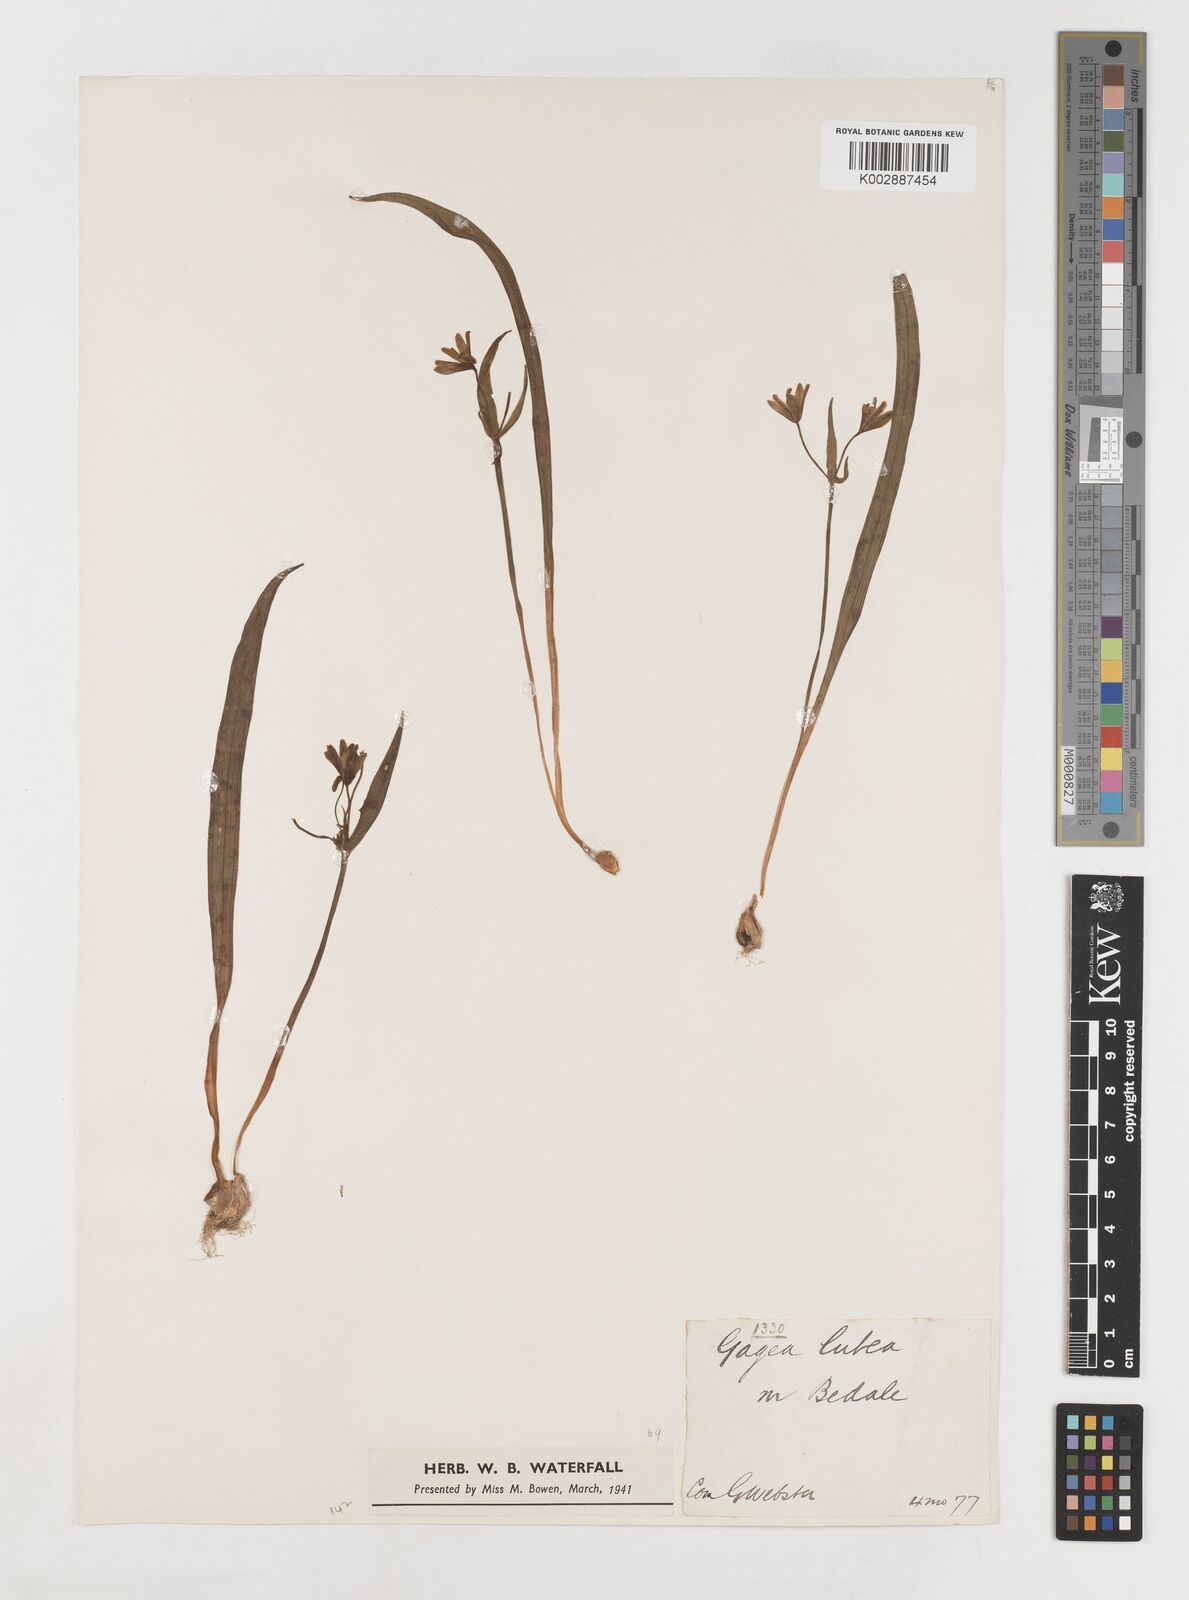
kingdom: Plantae
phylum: Tracheophyta
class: Liliopsida
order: Liliales
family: Liliaceae
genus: Gagea
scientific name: Gagea lutea
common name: Yellow star-of-bethlehem
